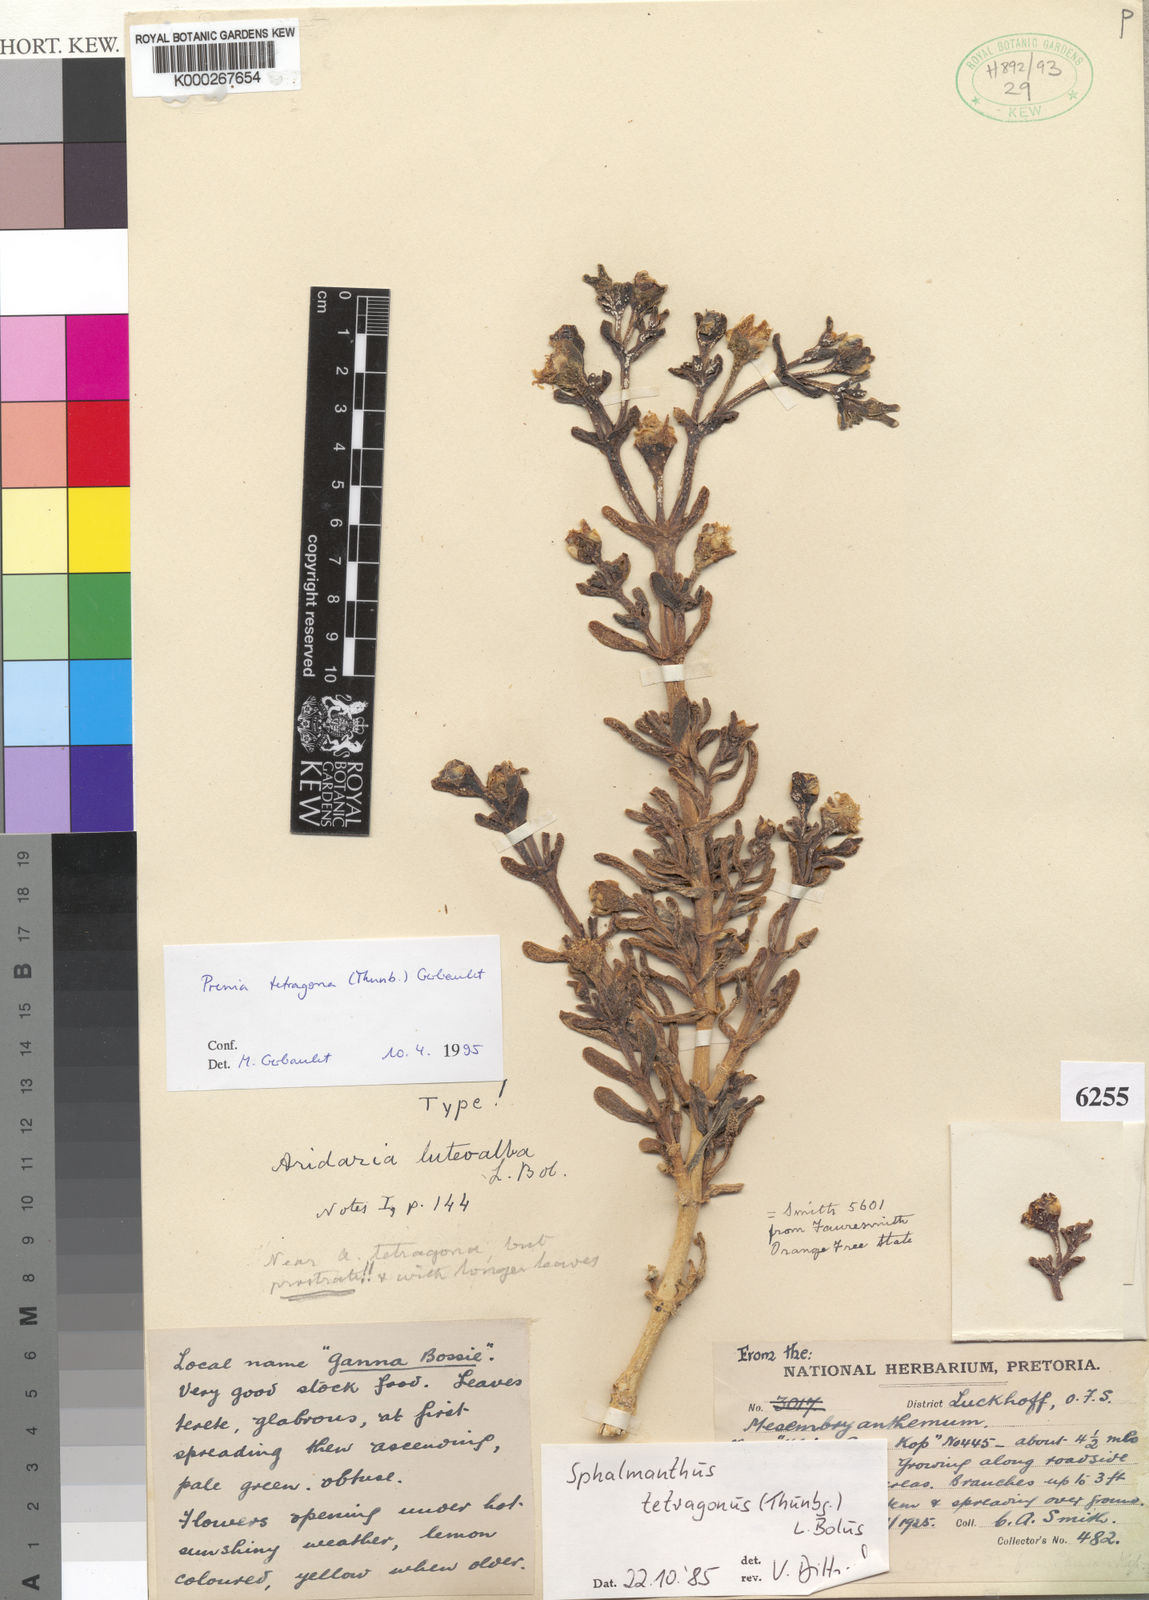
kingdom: Plantae
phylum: Tracheophyta
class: Magnoliopsida
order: Caryophyllales
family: Aizoaceae
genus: Mesembryanthemum
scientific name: Mesembryanthemum tetragonum
